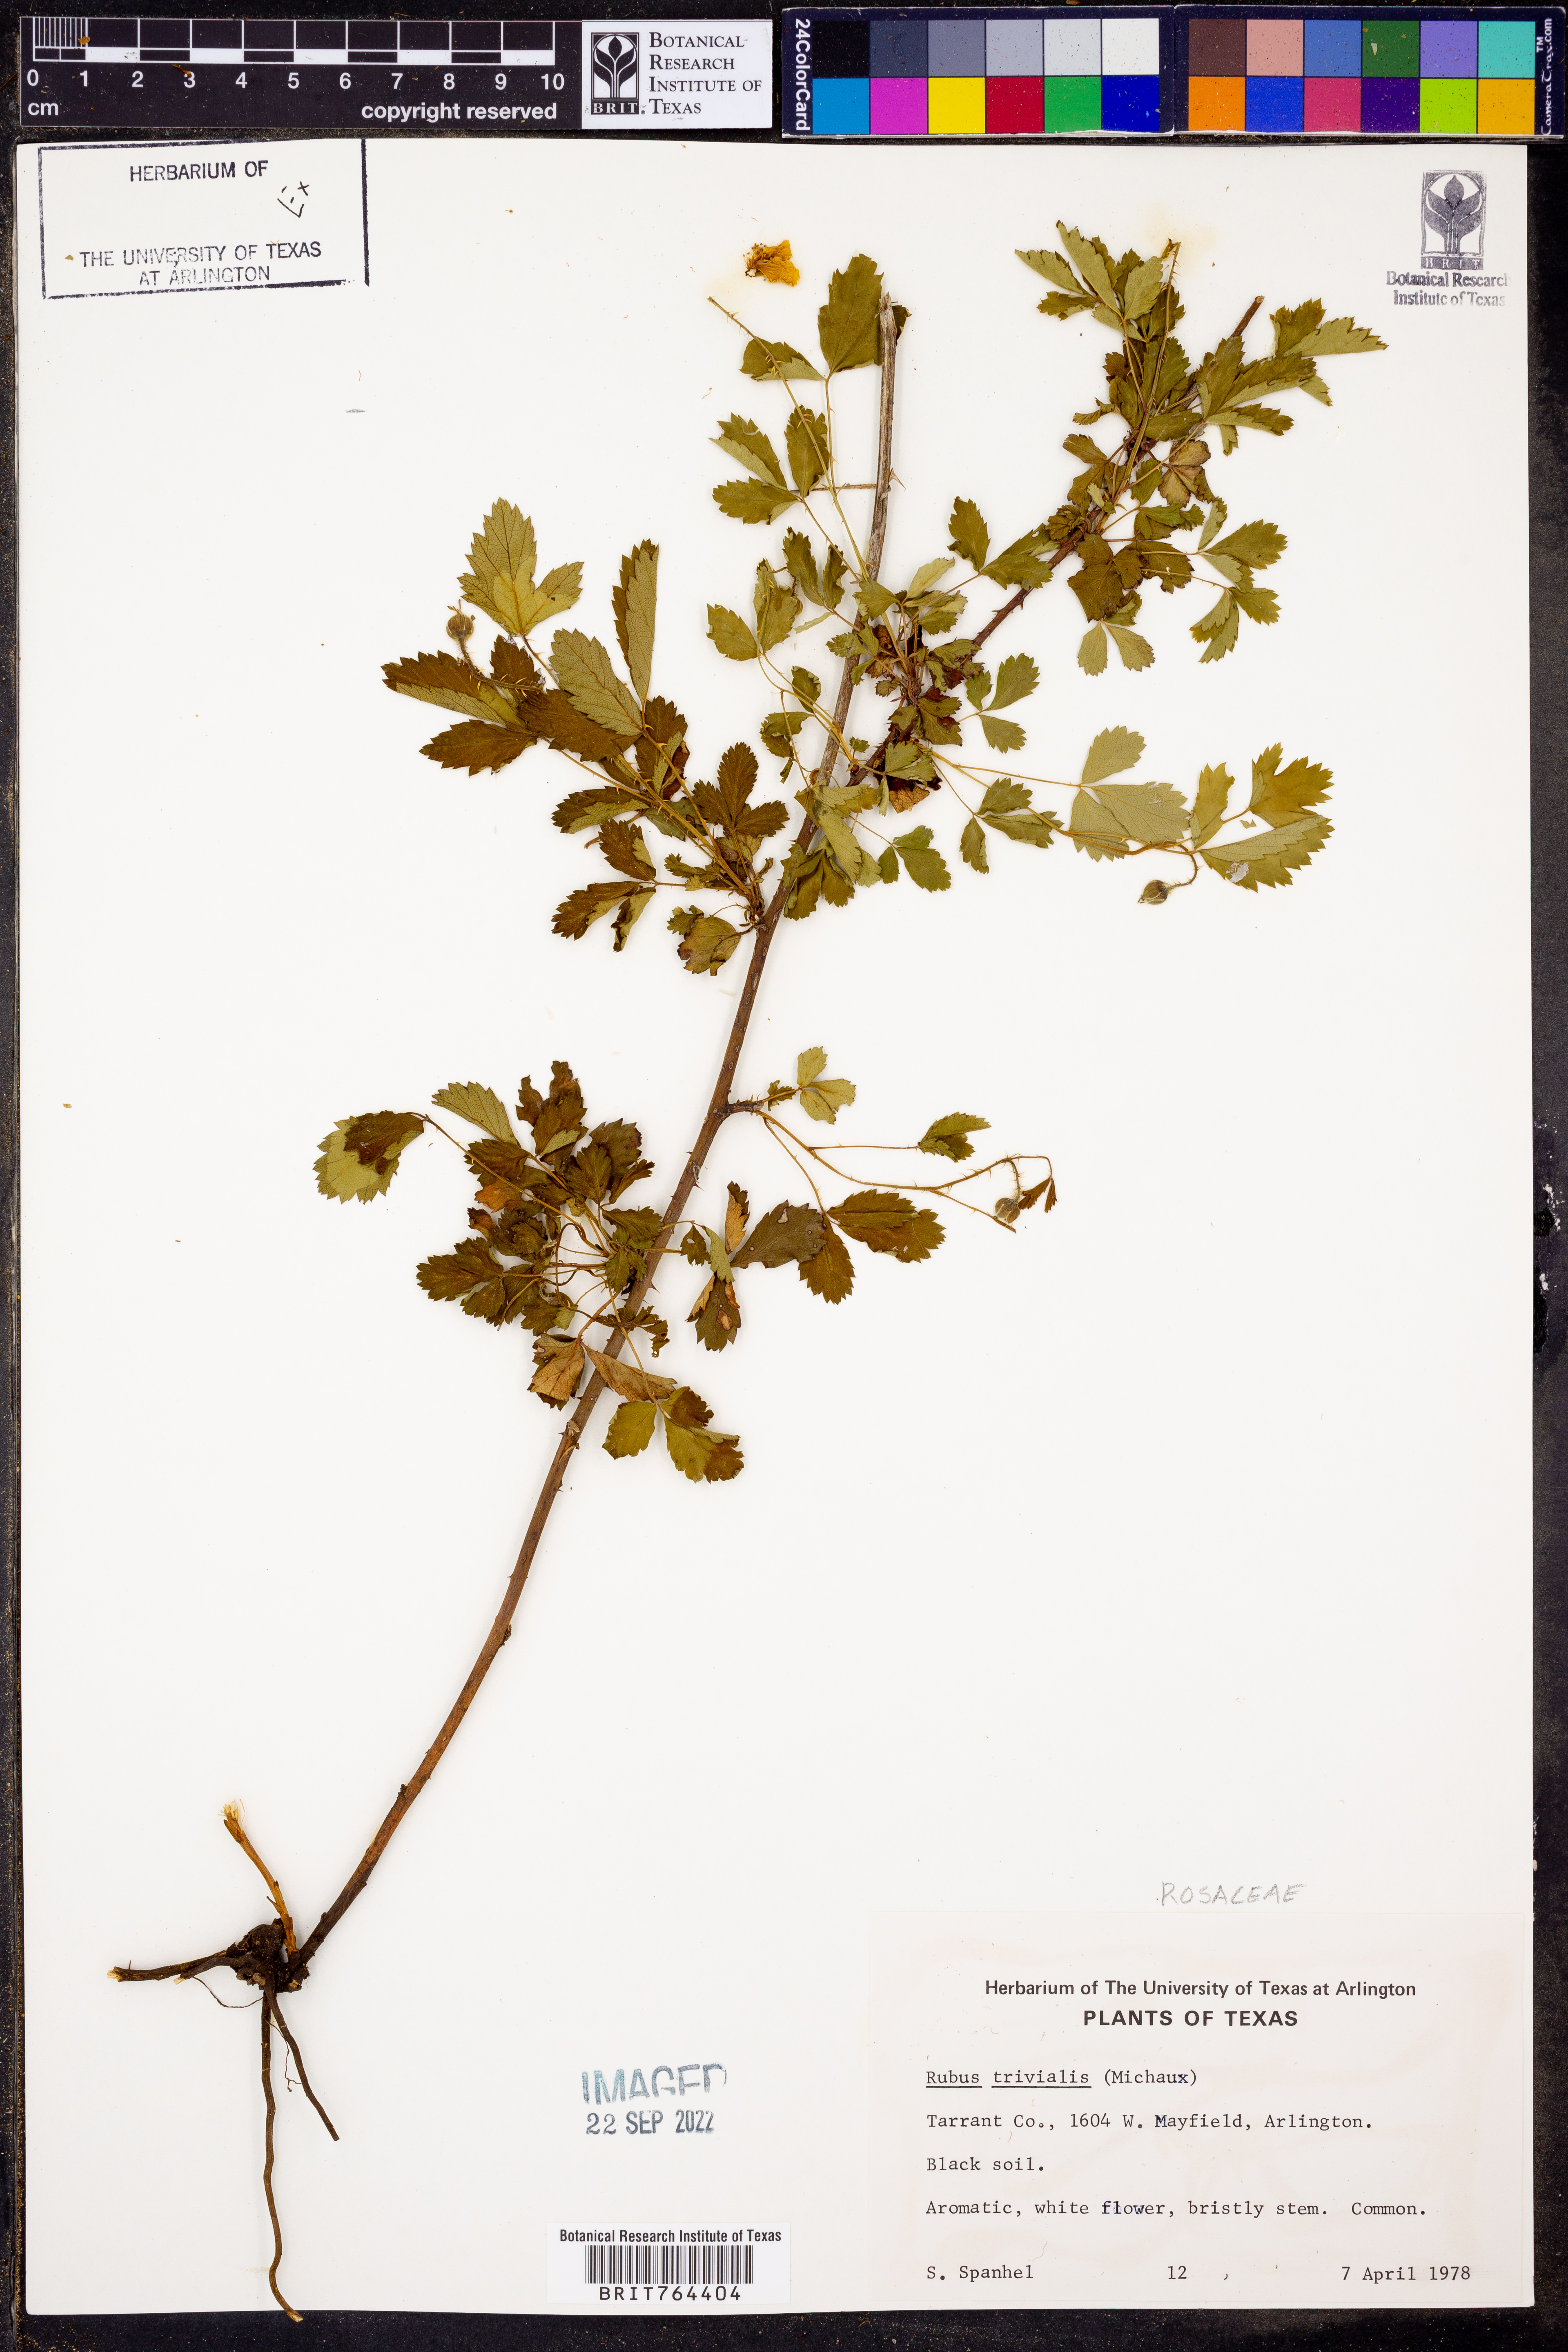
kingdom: Plantae
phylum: Tracheophyta
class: Magnoliopsida
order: Rosales
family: Rosaceae
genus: Rubus
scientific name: Rubus trivialis
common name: Southern dewberry
